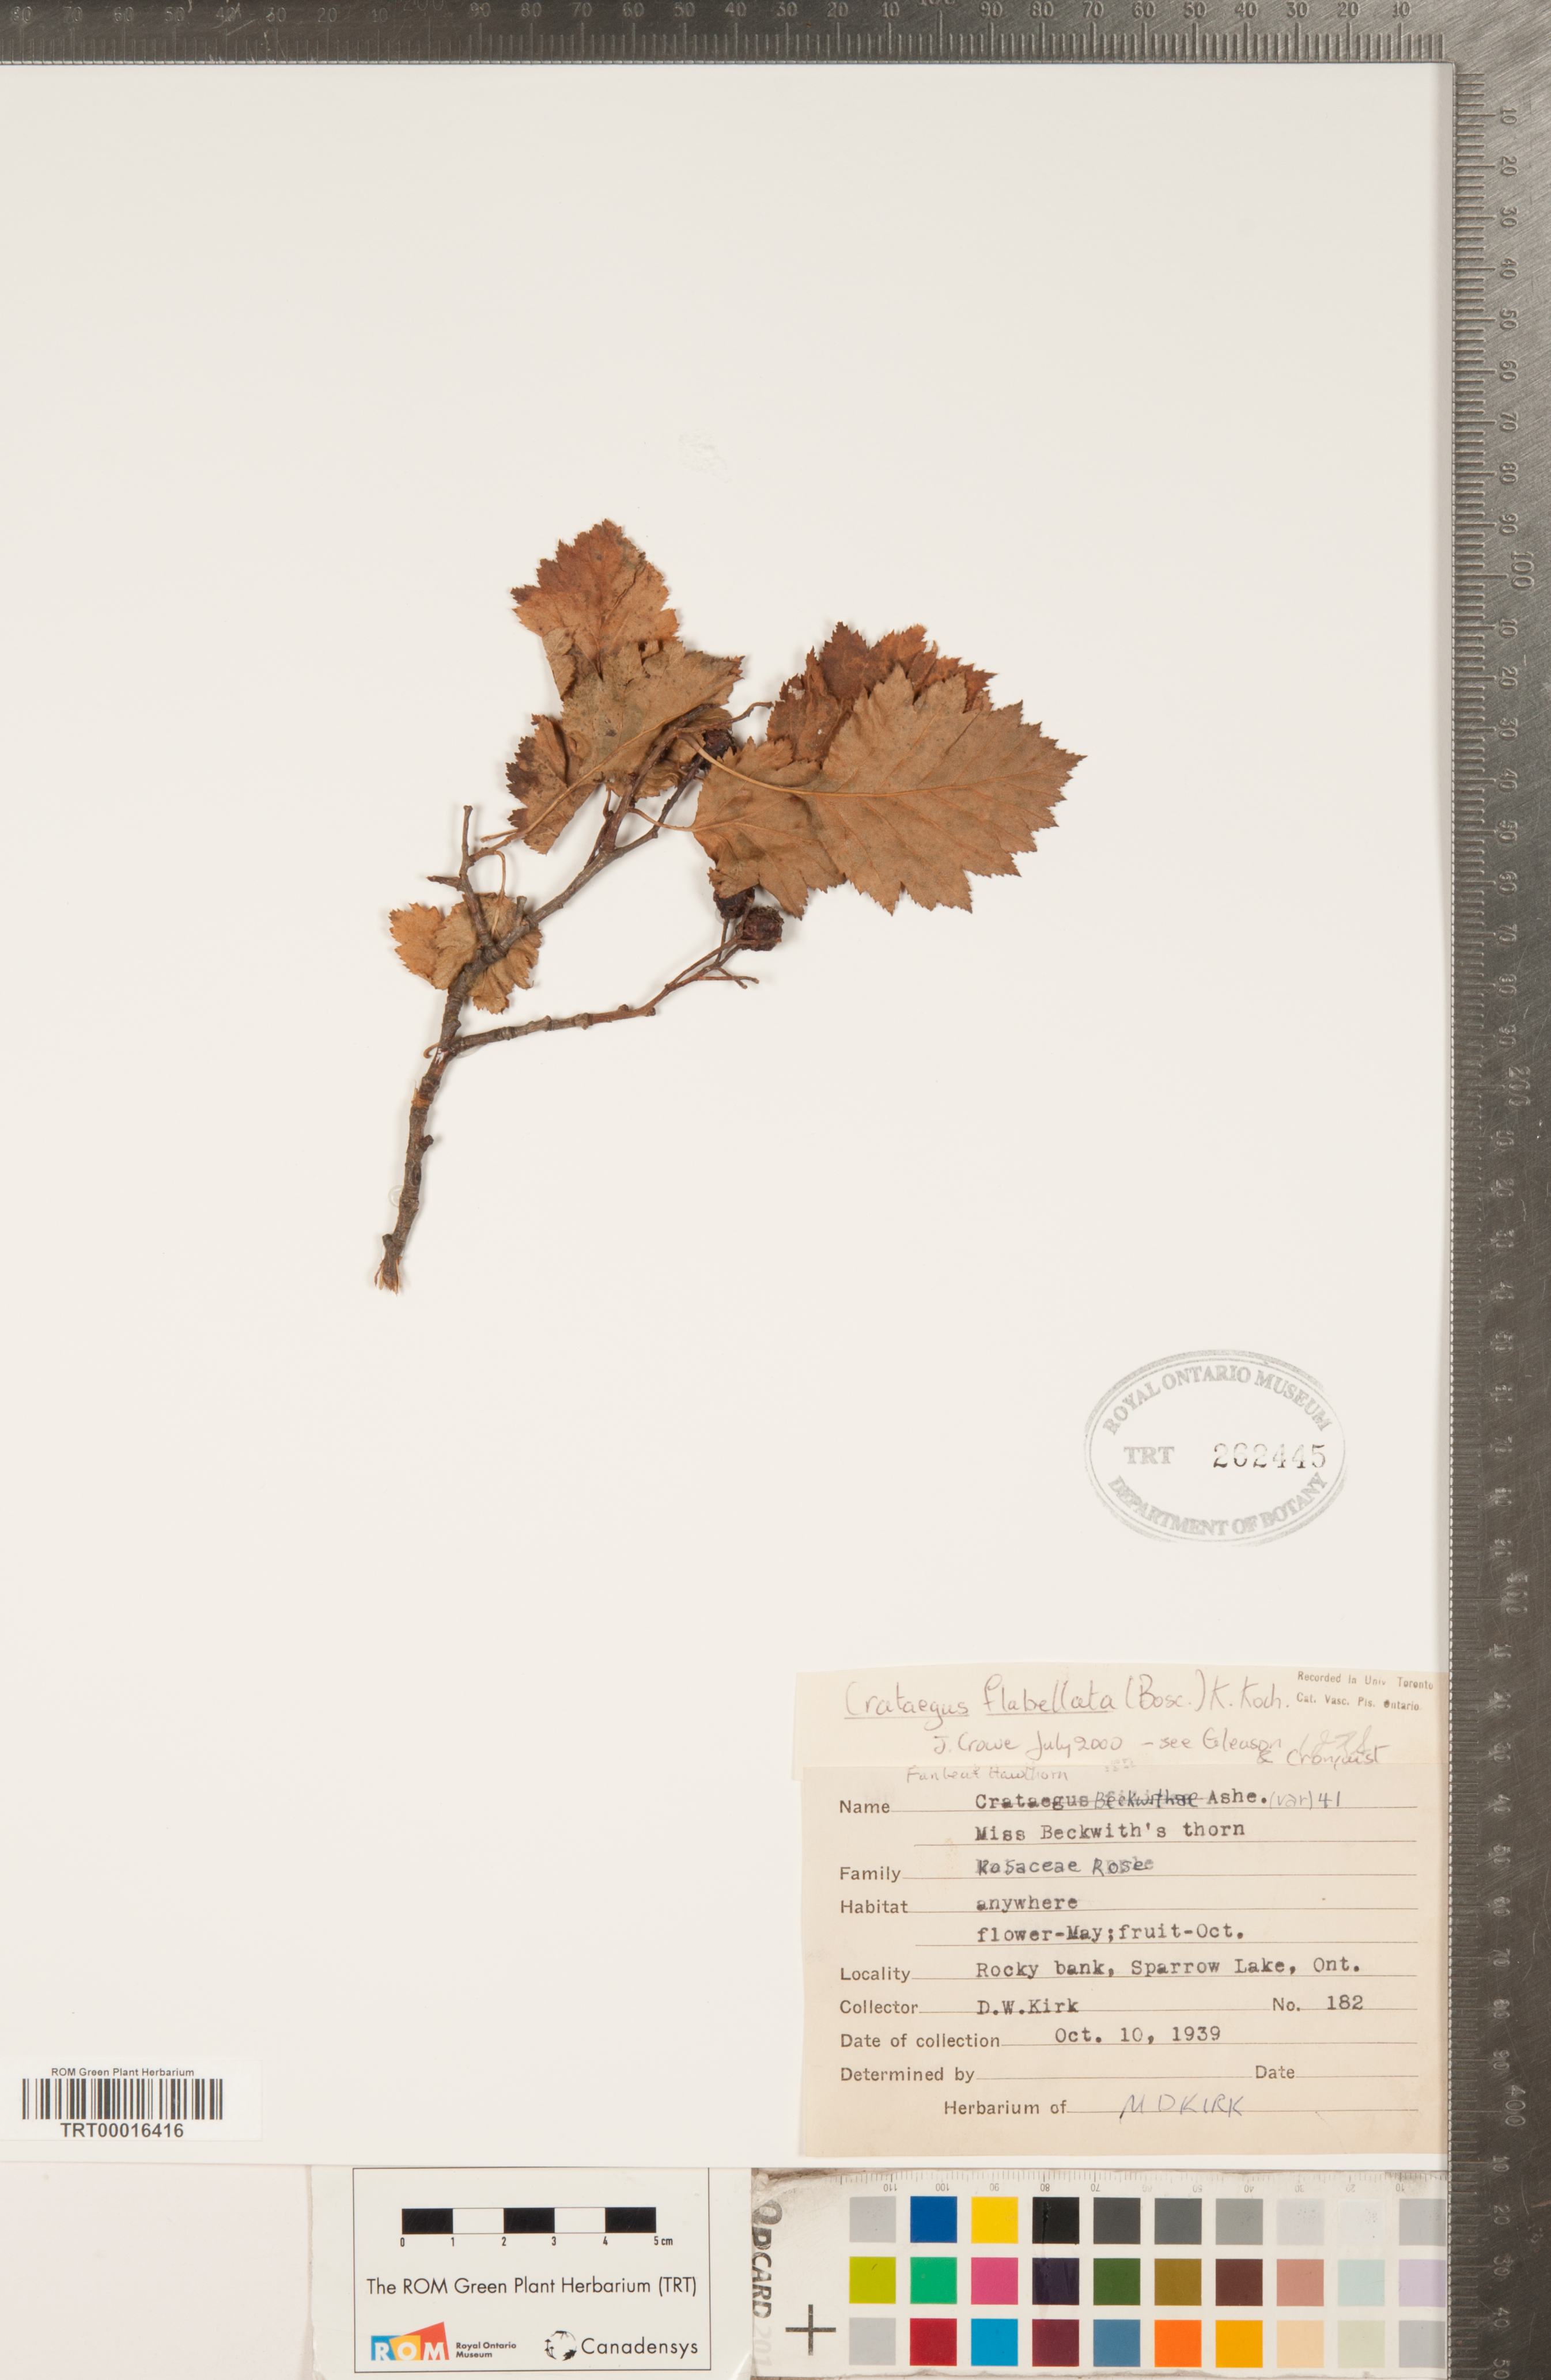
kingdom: Plantae
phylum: Tracheophyta
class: Magnoliopsida
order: Rosales
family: Rosaceae
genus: Crataegus
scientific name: Crataegus flabellata
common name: Bosc's hawthorn
